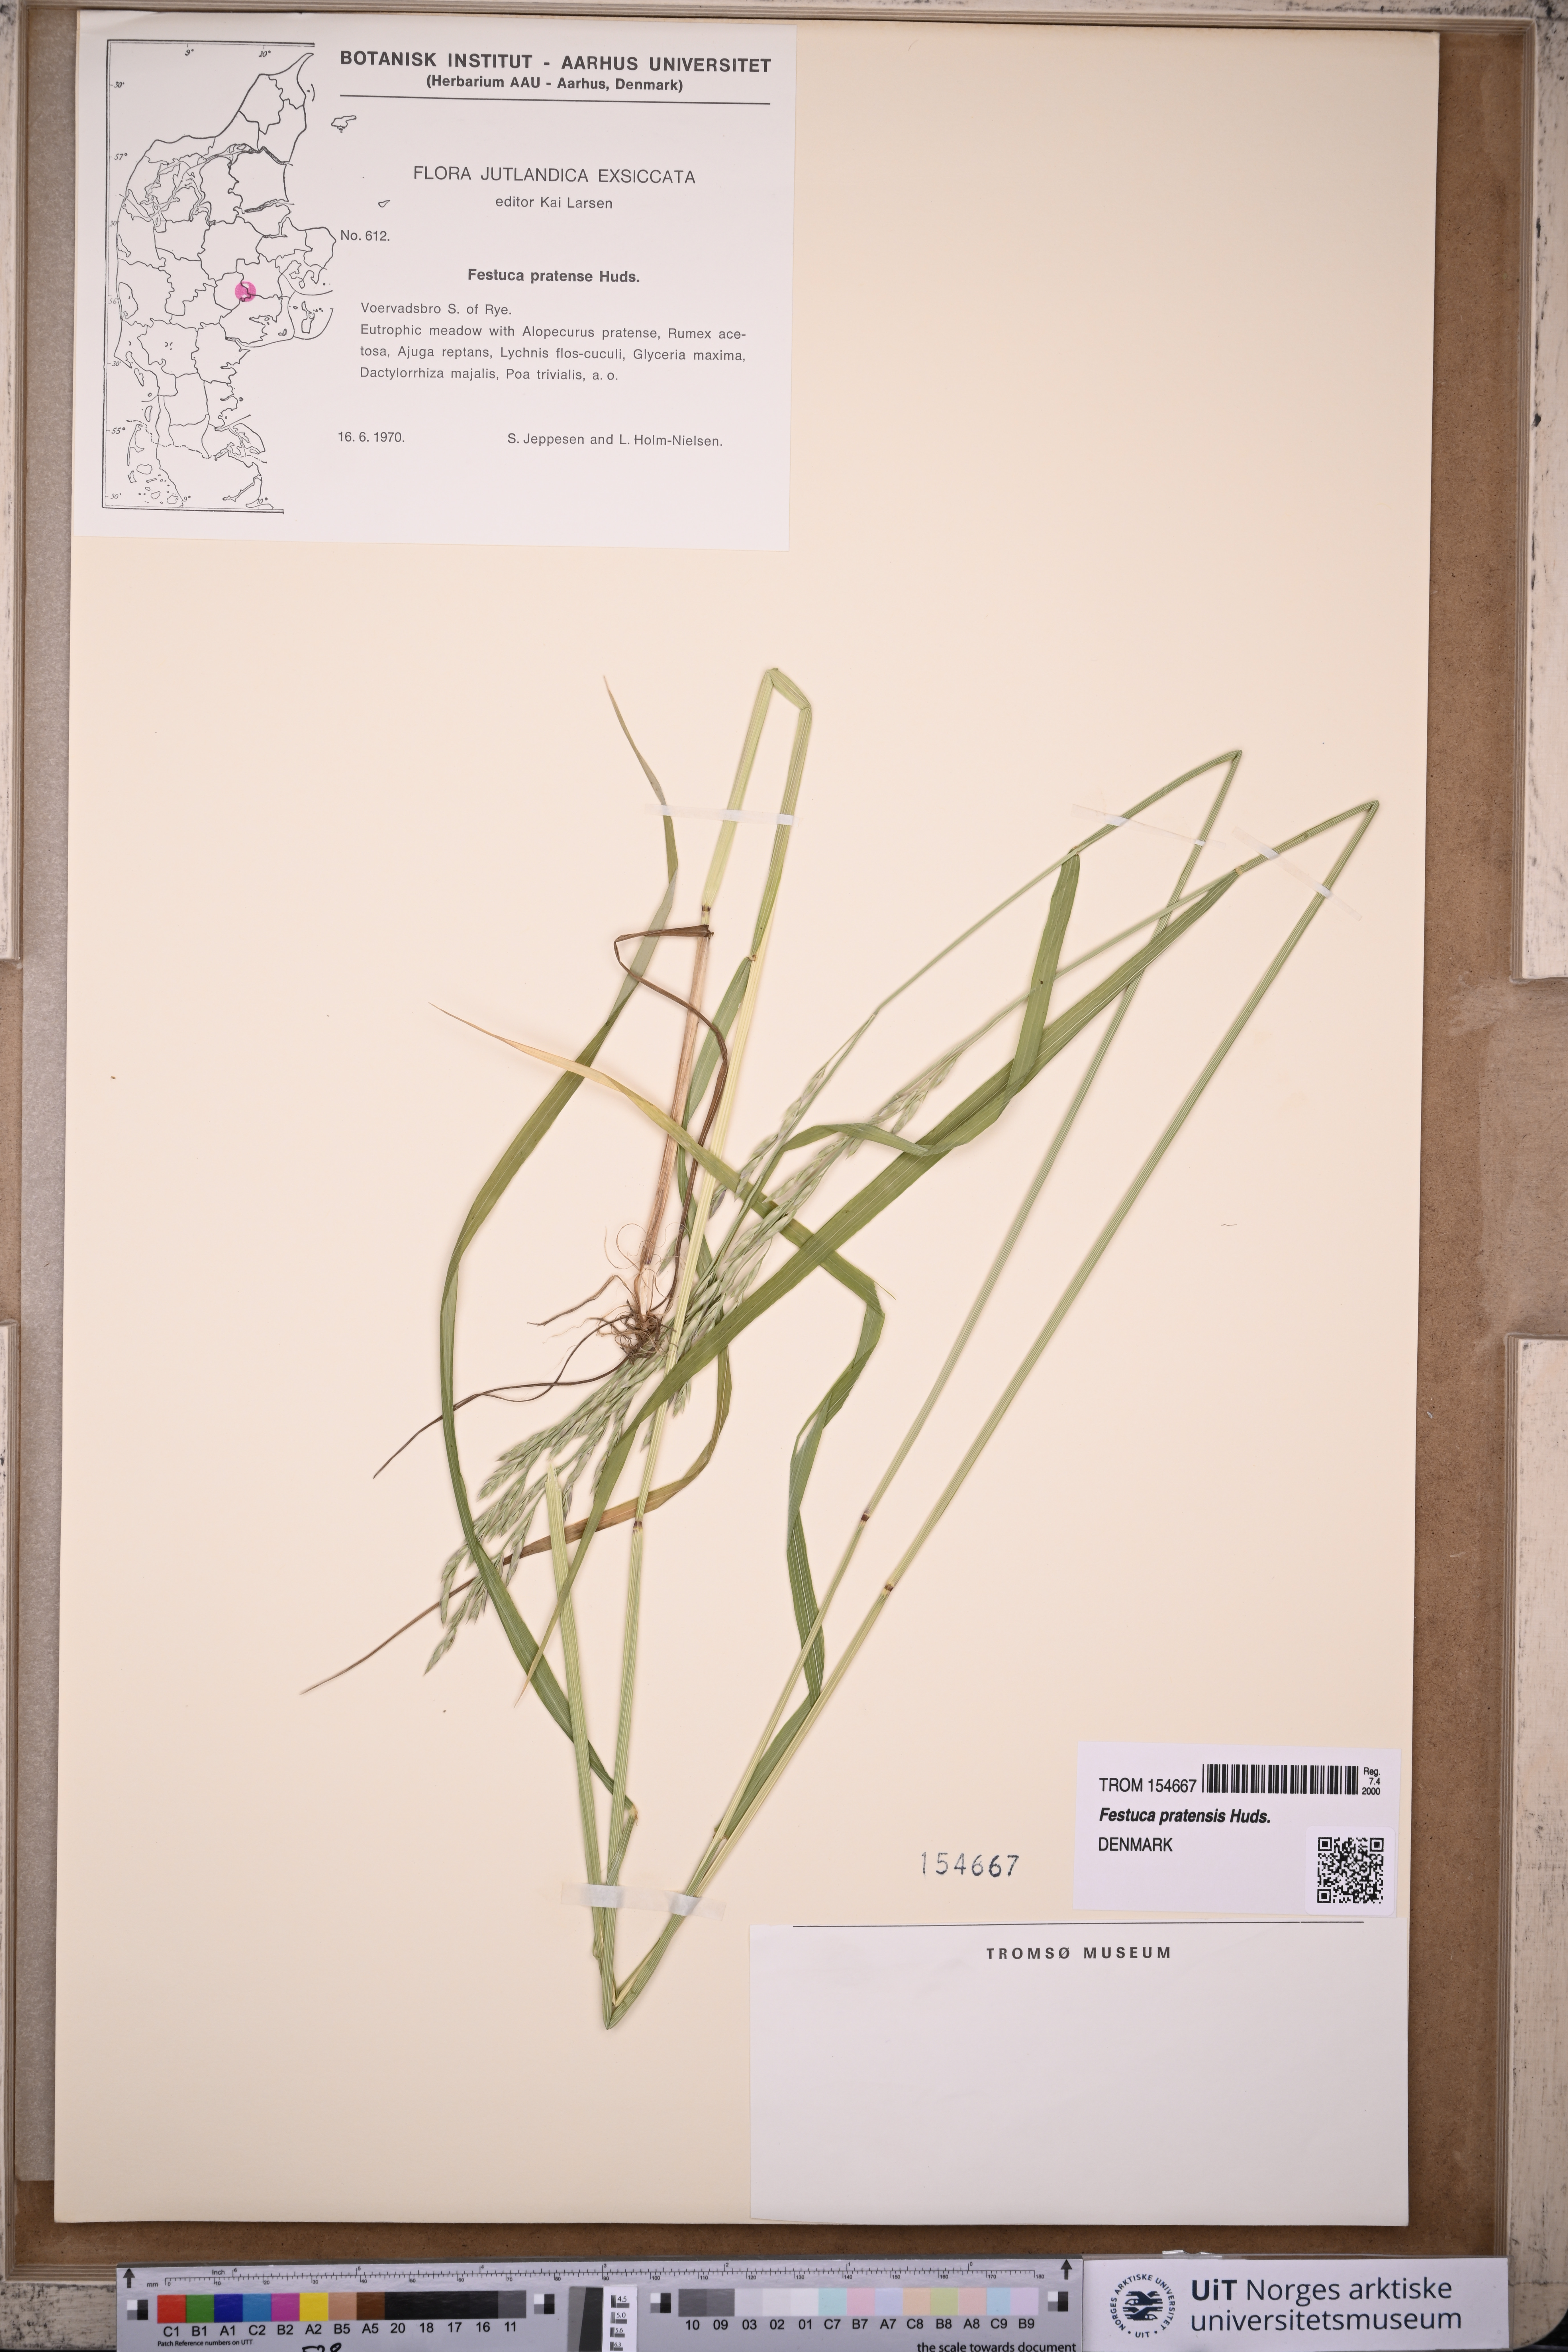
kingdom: Plantae
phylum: Tracheophyta
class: Liliopsida
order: Poales
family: Poaceae
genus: Lolium
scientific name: Lolium pratense
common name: Dover grass
